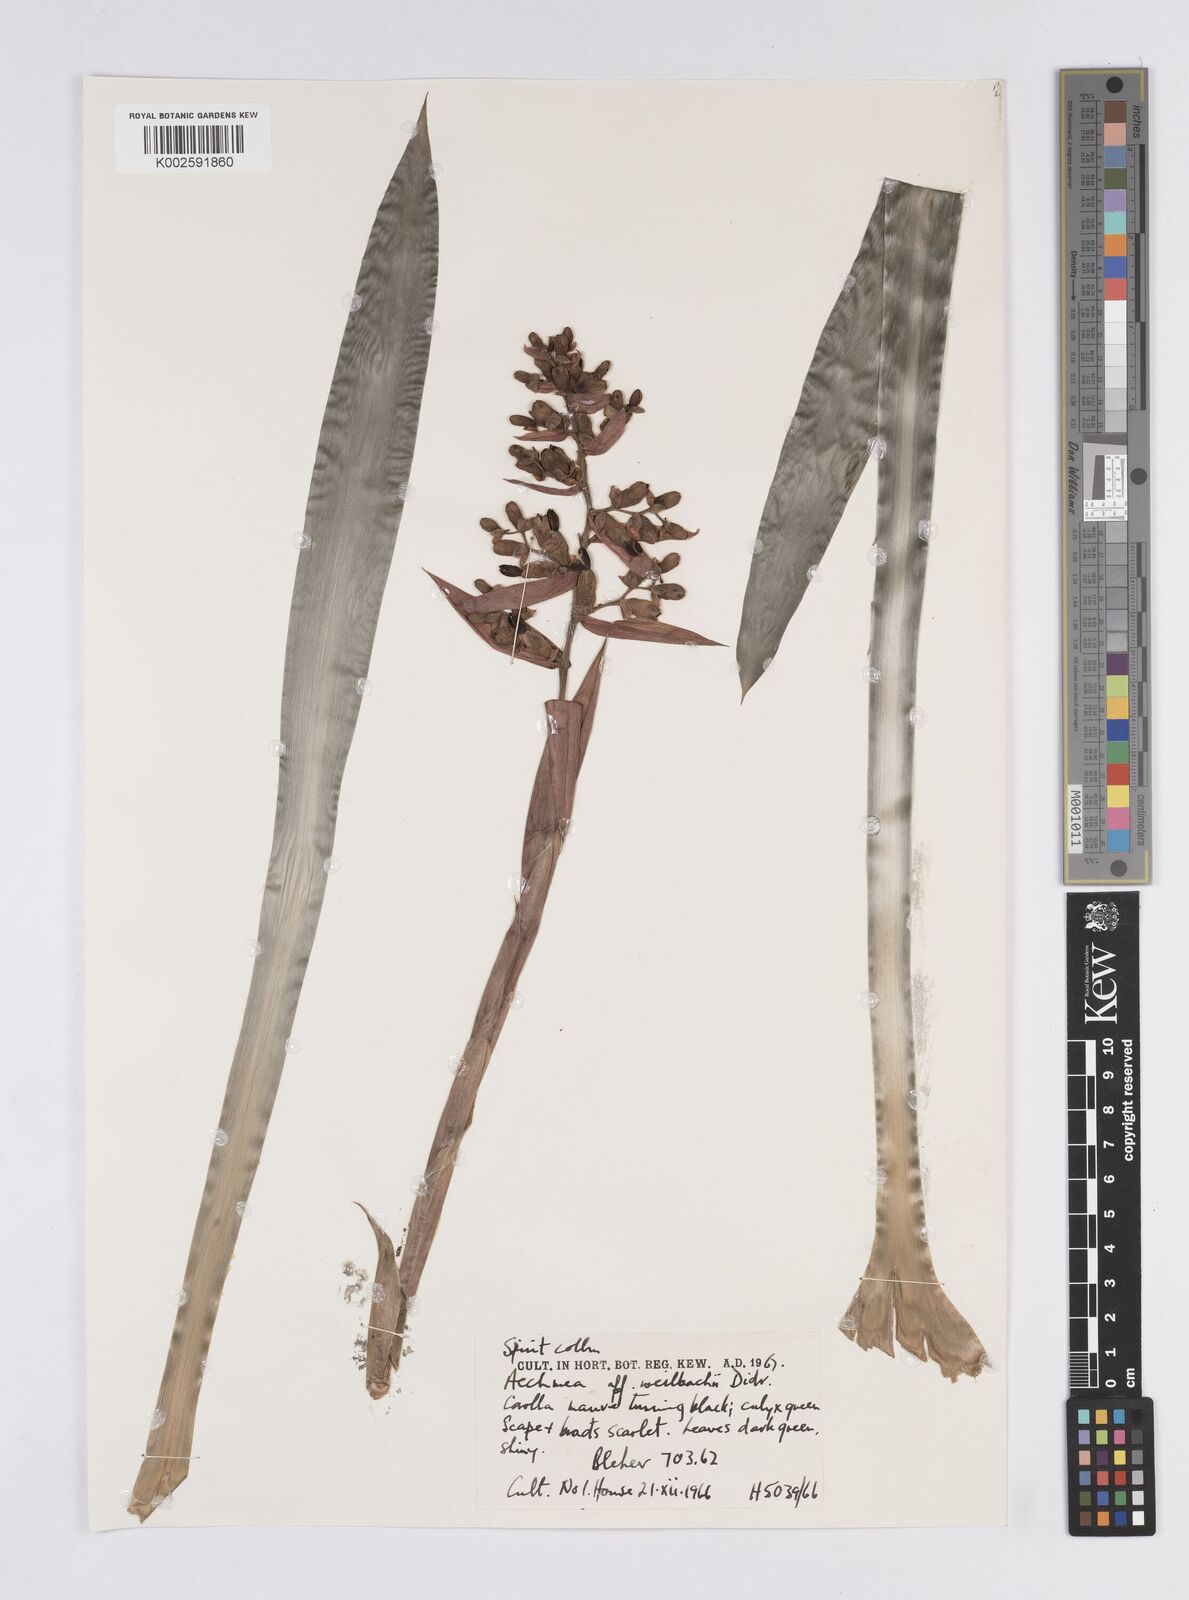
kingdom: Plantae
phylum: Tracheophyta
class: Liliopsida
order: Poales
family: Bromeliaceae
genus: Aechmea
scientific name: Aechmea weilbachii
